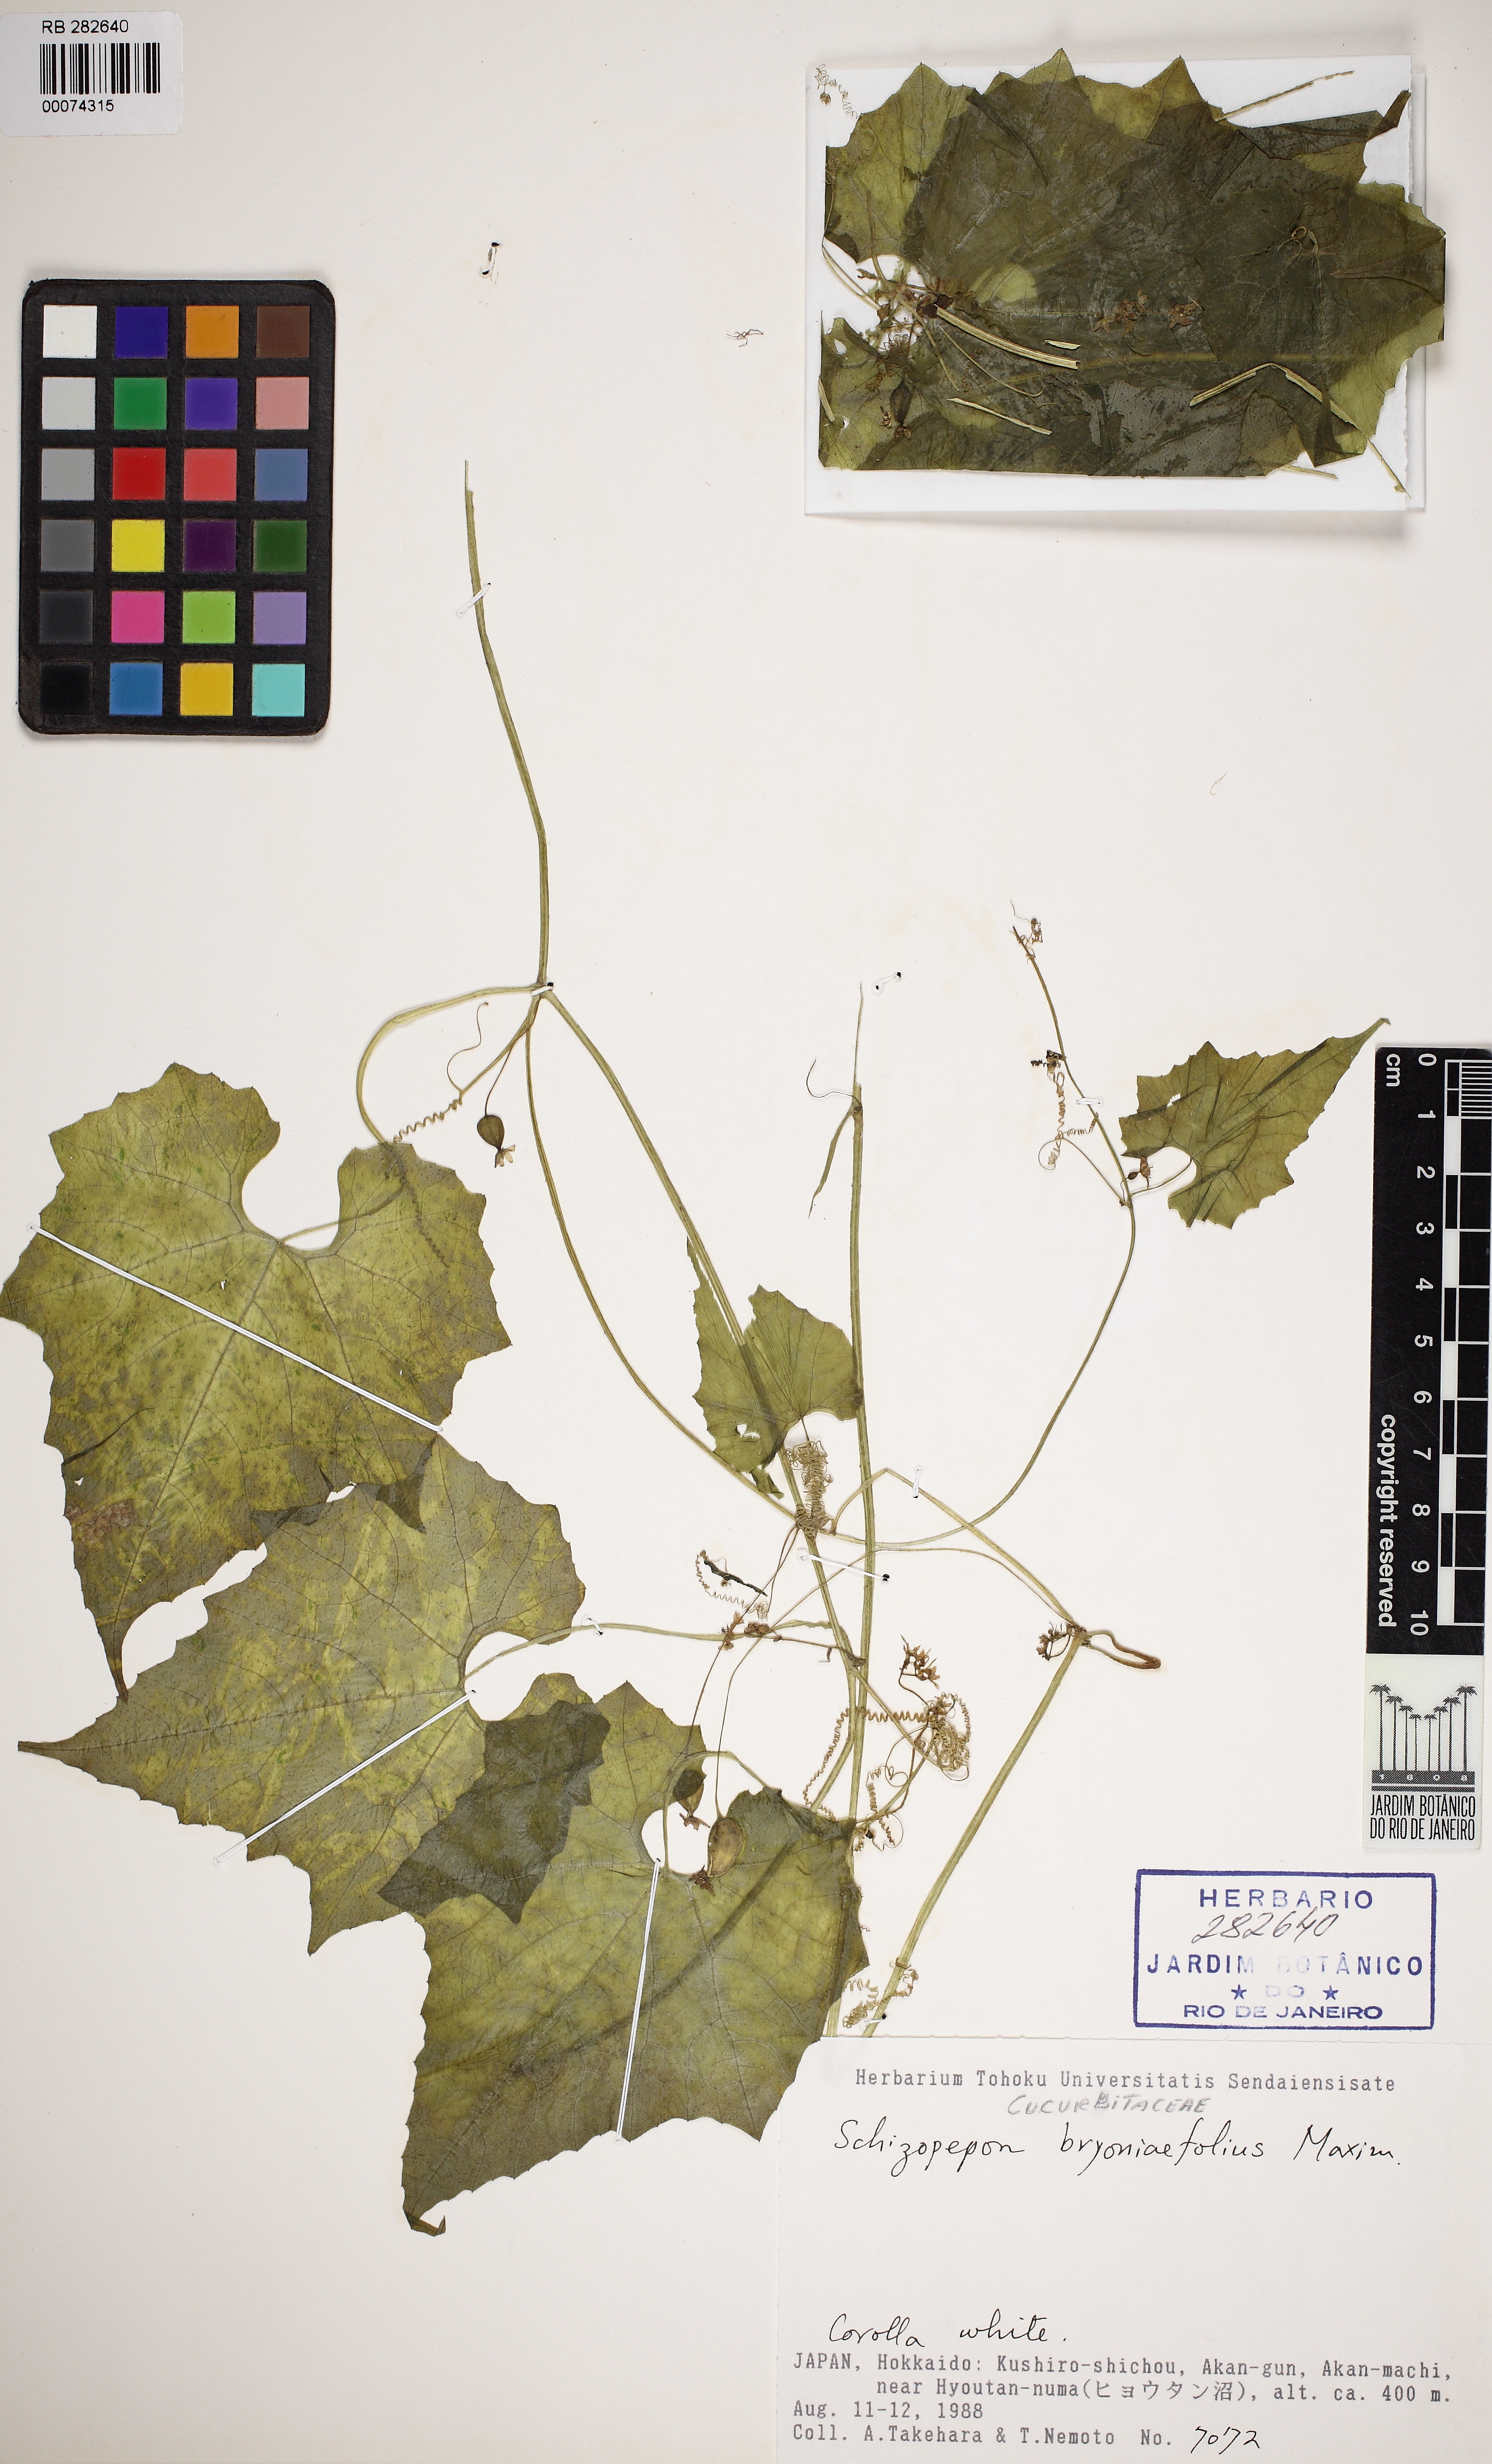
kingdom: Plantae
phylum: Tracheophyta
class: Magnoliopsida
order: Cucurbitales
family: Cucurbitaceae
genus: Schizopepon
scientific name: Schizopepon bryoniifolius
